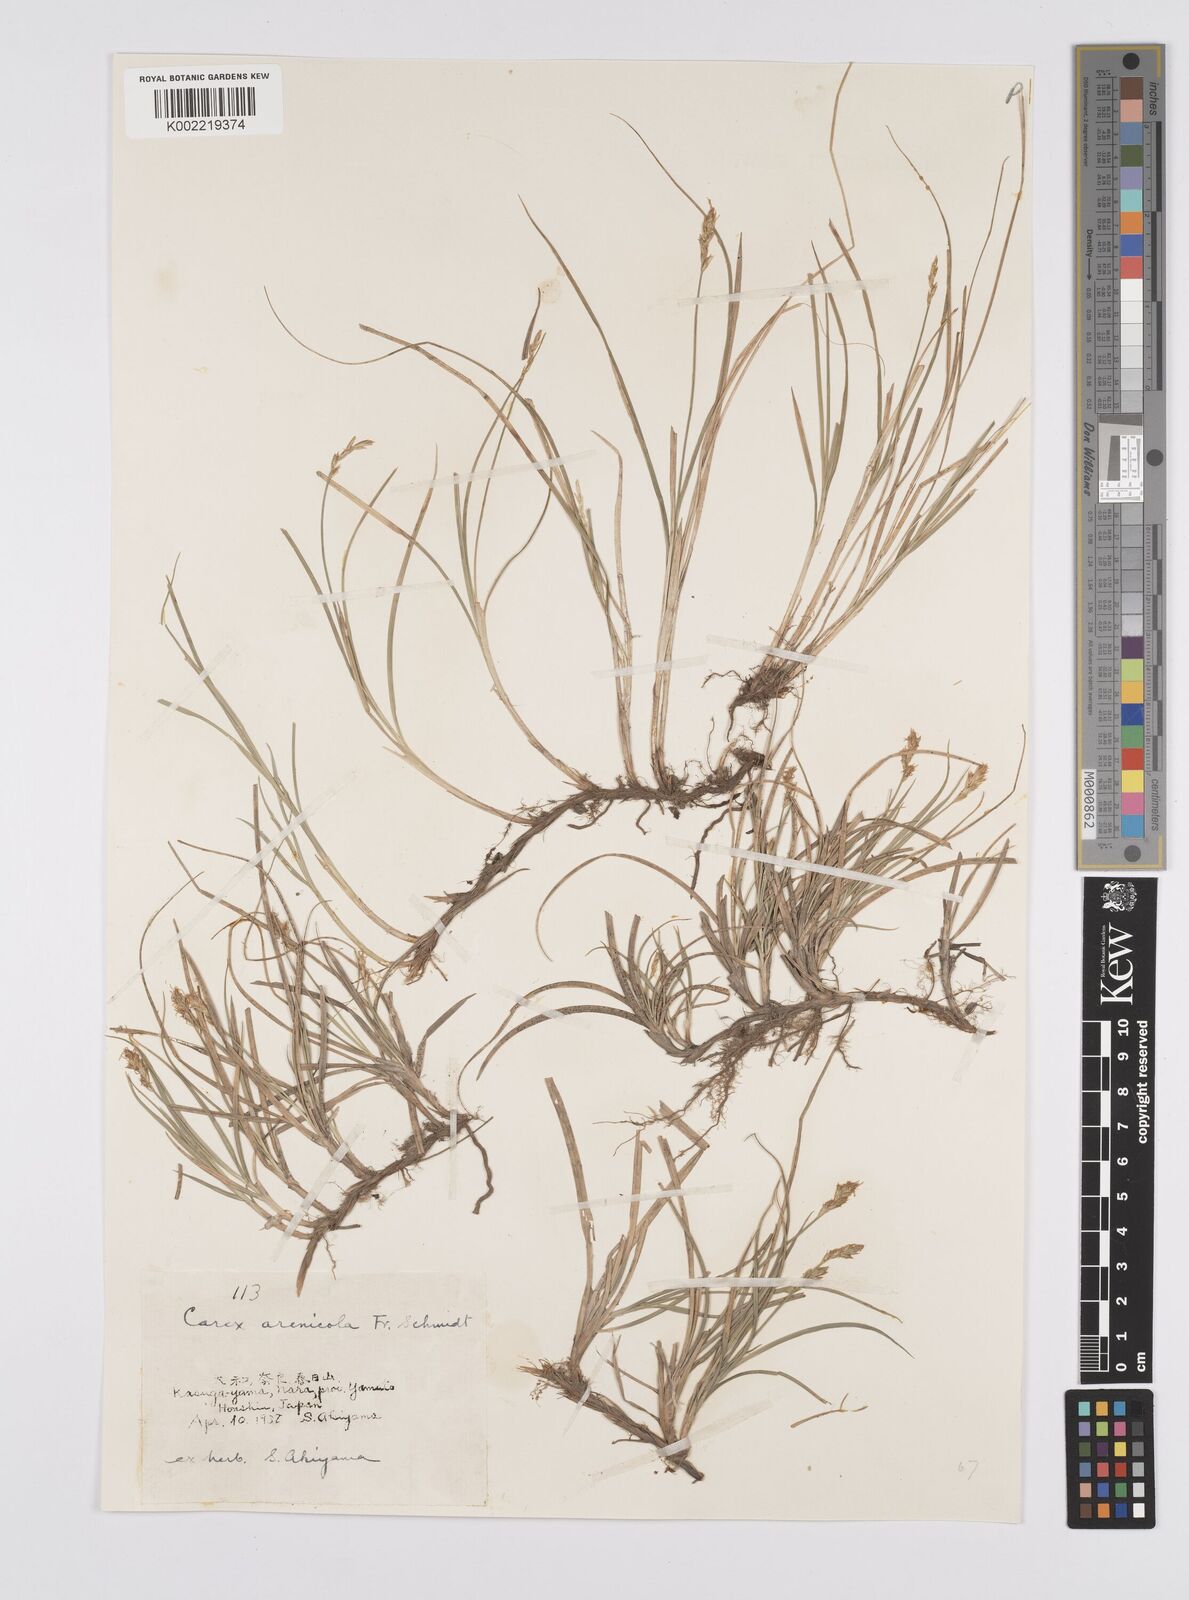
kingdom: Plantae
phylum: Tracheophyta
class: Liliopsida
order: Poales
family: Cyperaceae
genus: Carex
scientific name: Carex arenicola
